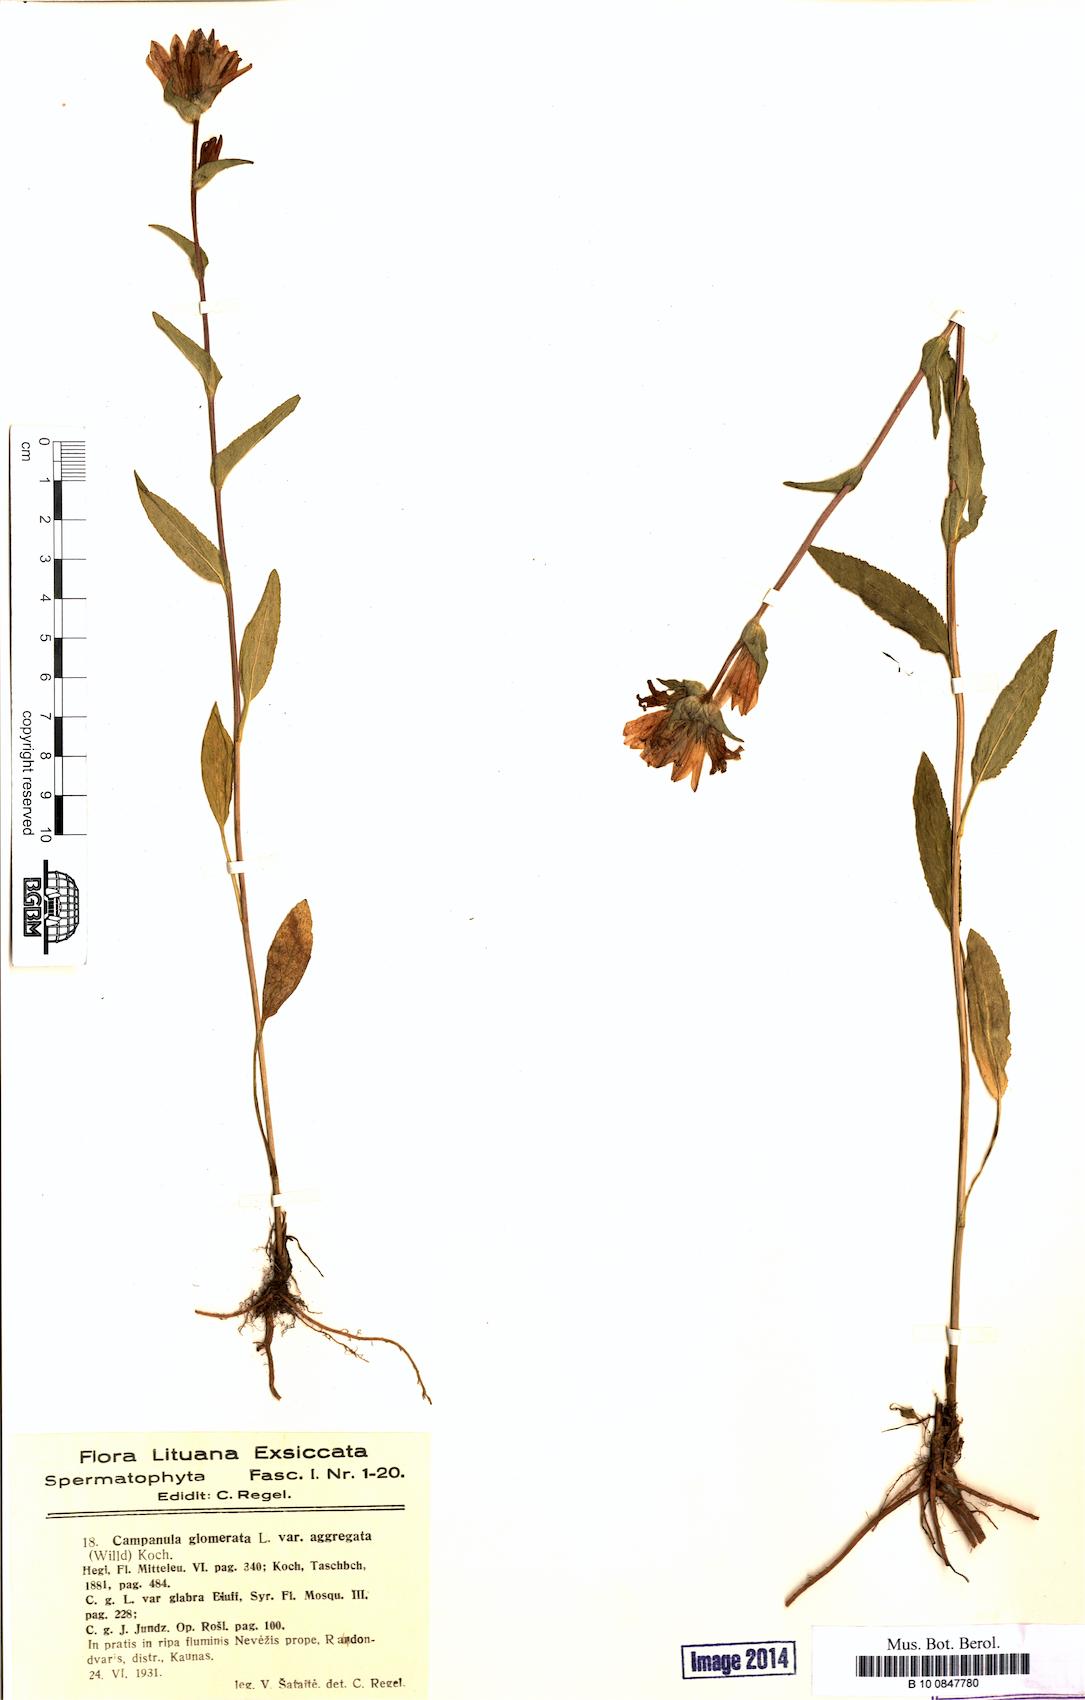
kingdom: Plantae
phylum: Tracheophyta
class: Magnoliopsida
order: Asterales
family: Campanulaceae
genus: Campanula
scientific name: Campanula glomerata
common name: Clustered bellflower
